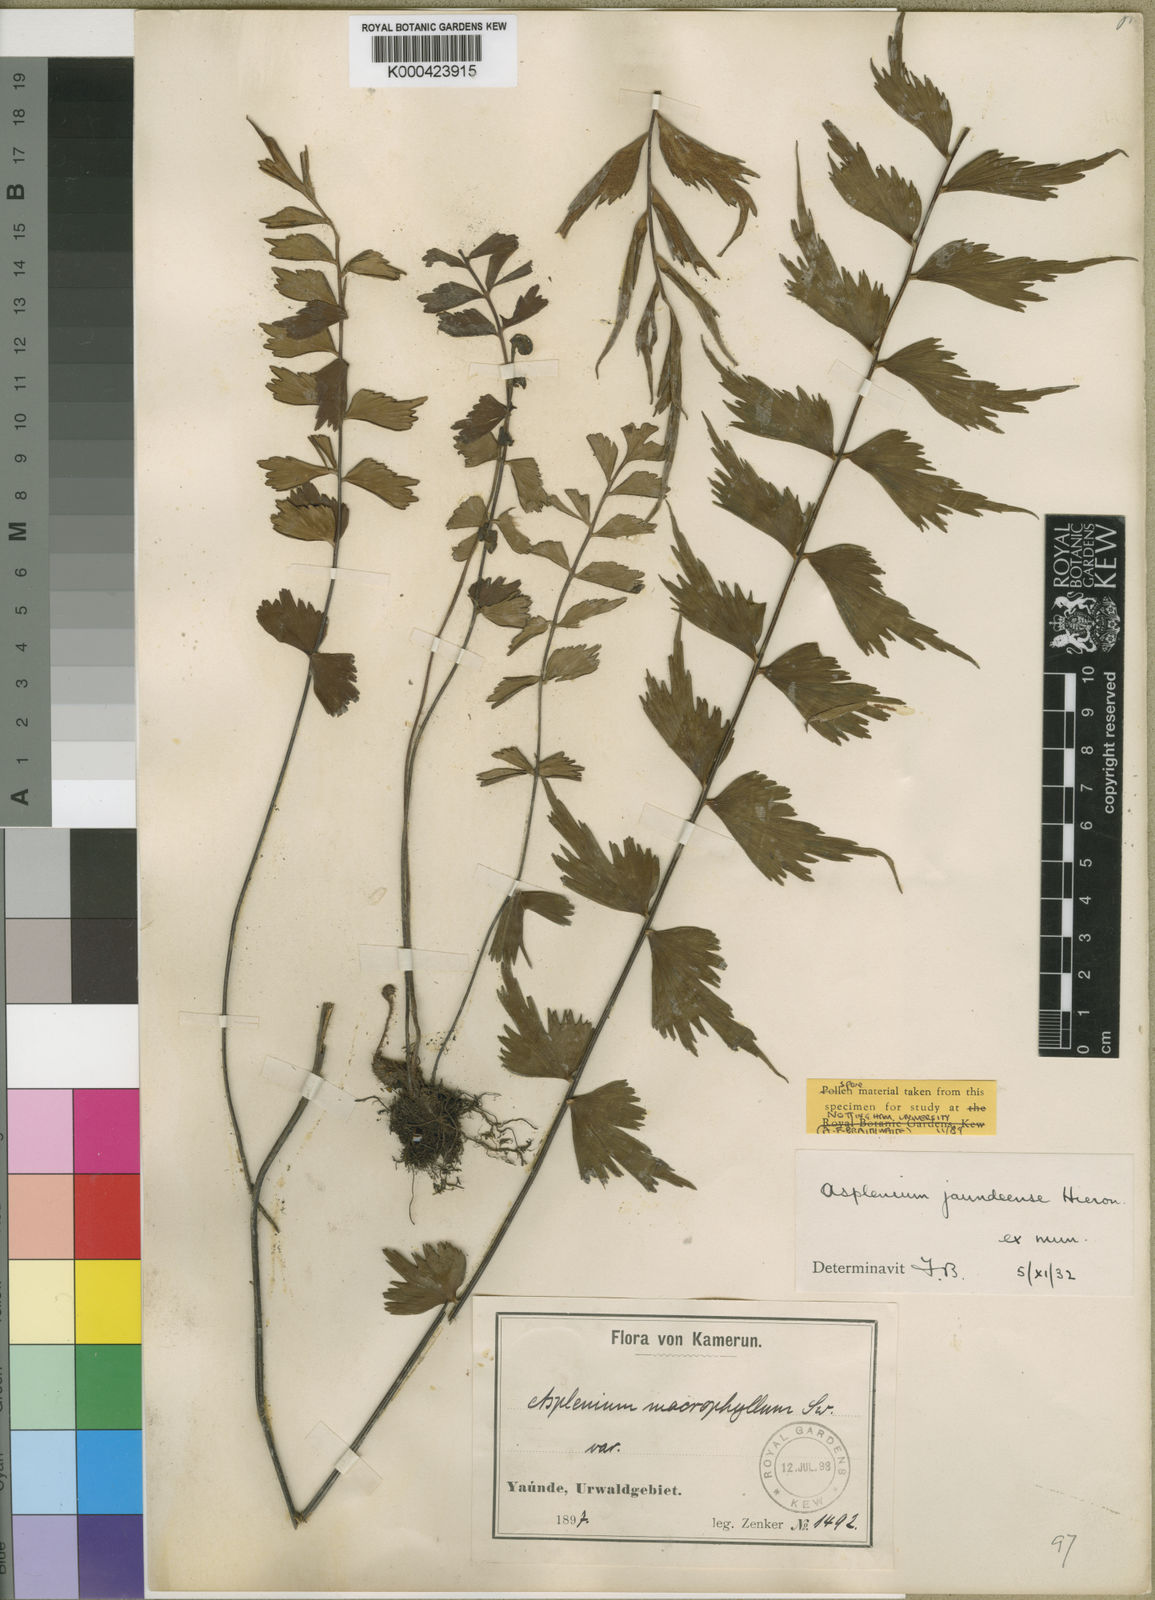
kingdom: Plantae
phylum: Tracheophyta
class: Polypodiopsida
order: Polypodiales
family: Aspleniaceae
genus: Asplenium
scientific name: Asplenium jaundeense
